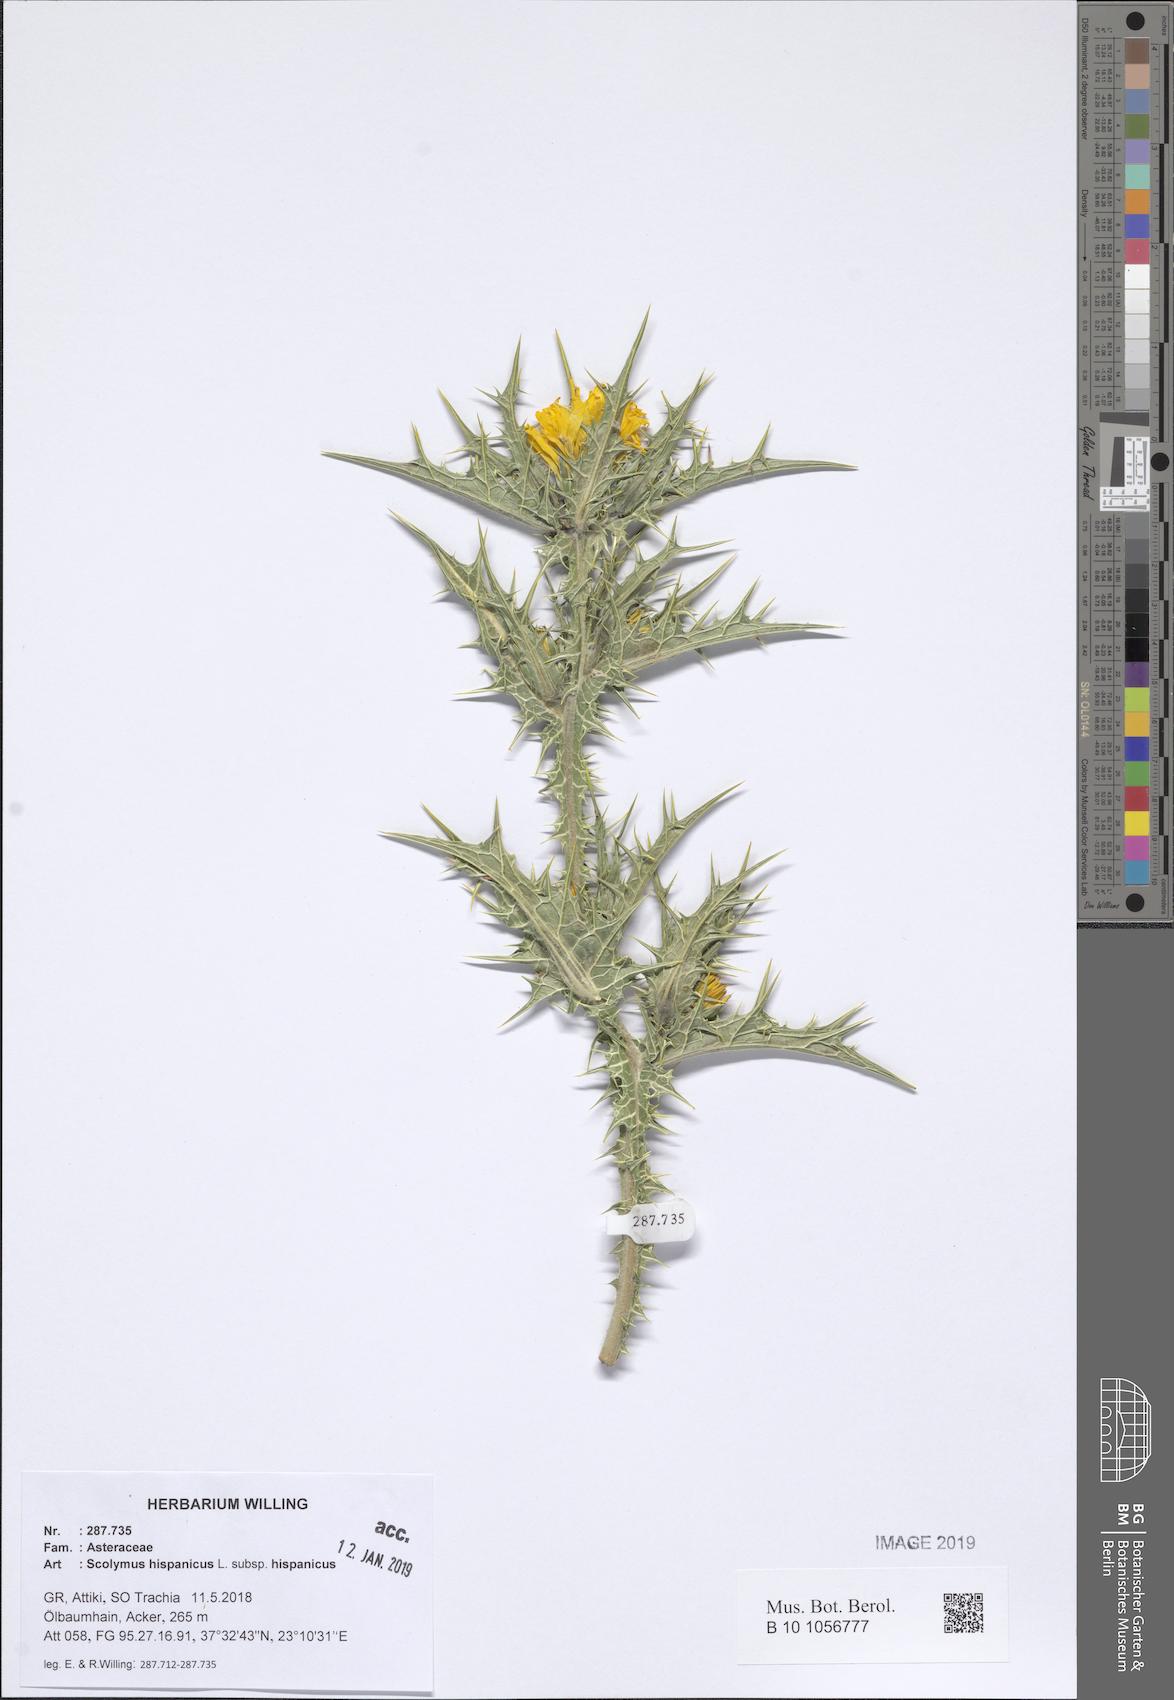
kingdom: Plantae
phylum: Tracheophyta
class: Magnoliopsida
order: Asterales
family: Asteraceae
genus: Scolymus
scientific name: Scolymus hispanicus
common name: Golden thistle
